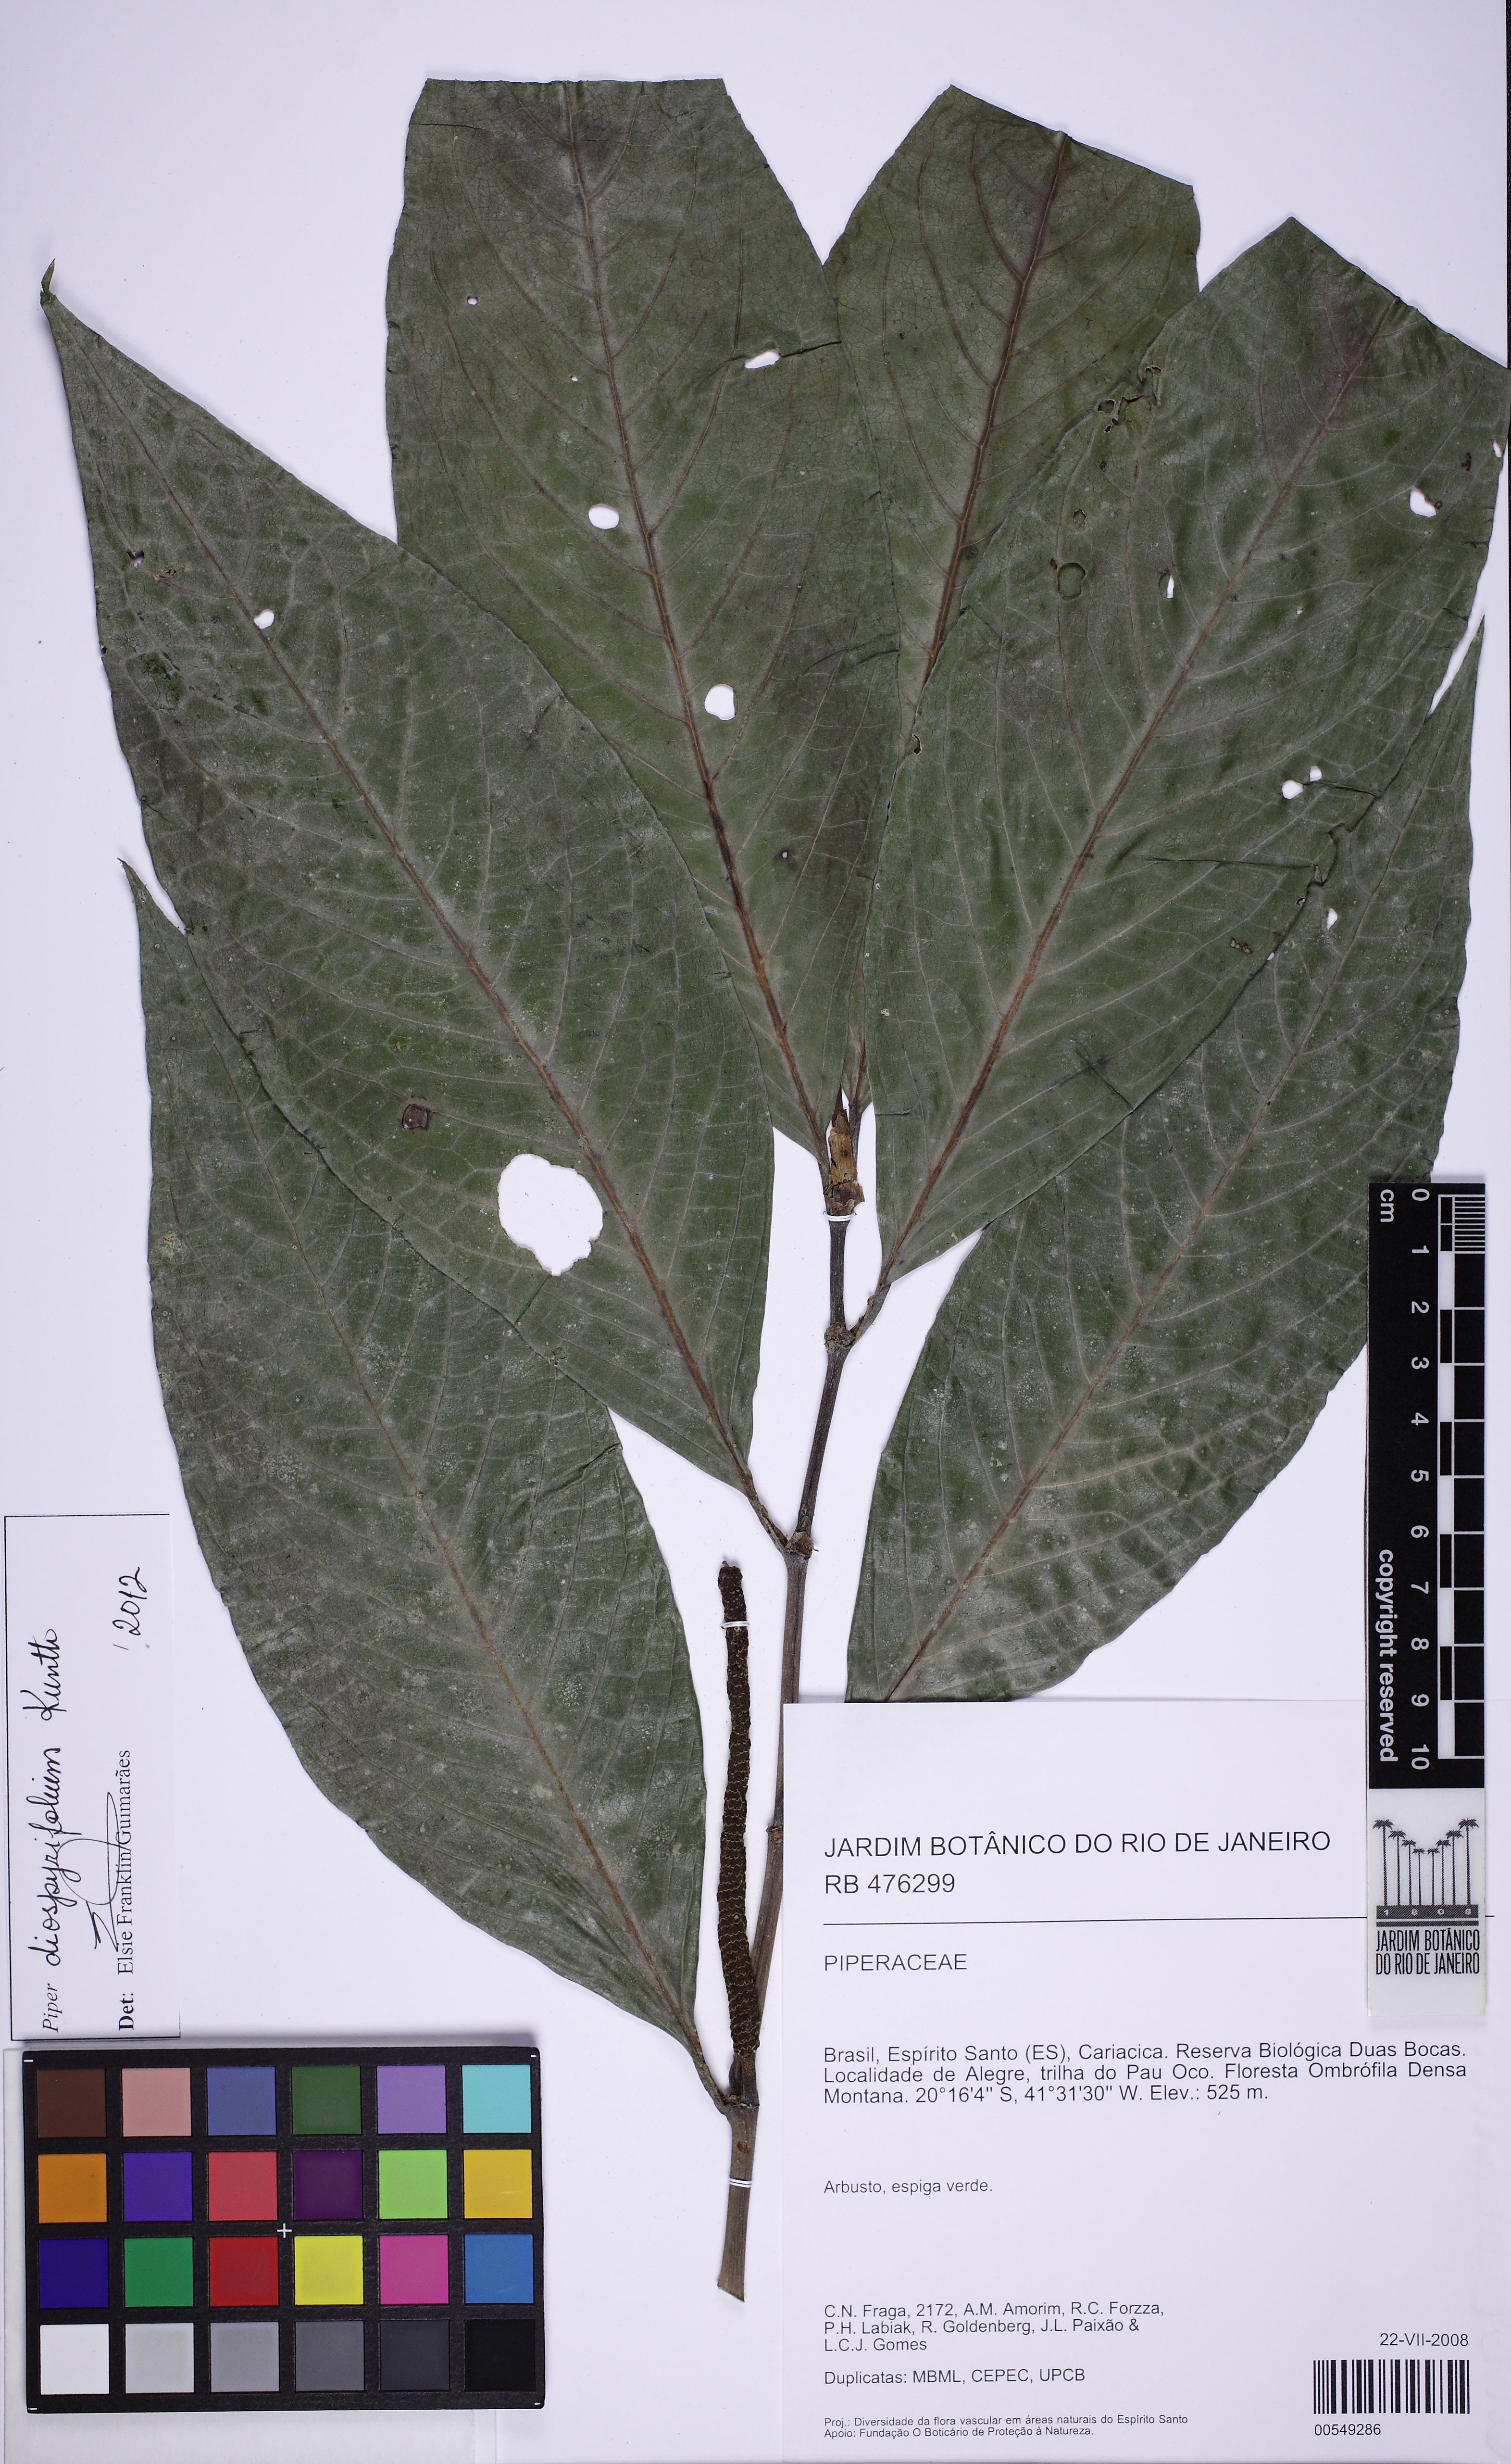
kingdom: Plantae
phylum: Tracheophyta
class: Magnoliopsida
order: Piperales
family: Piperaceae
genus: Piper
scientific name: Piper diospyrifolium
